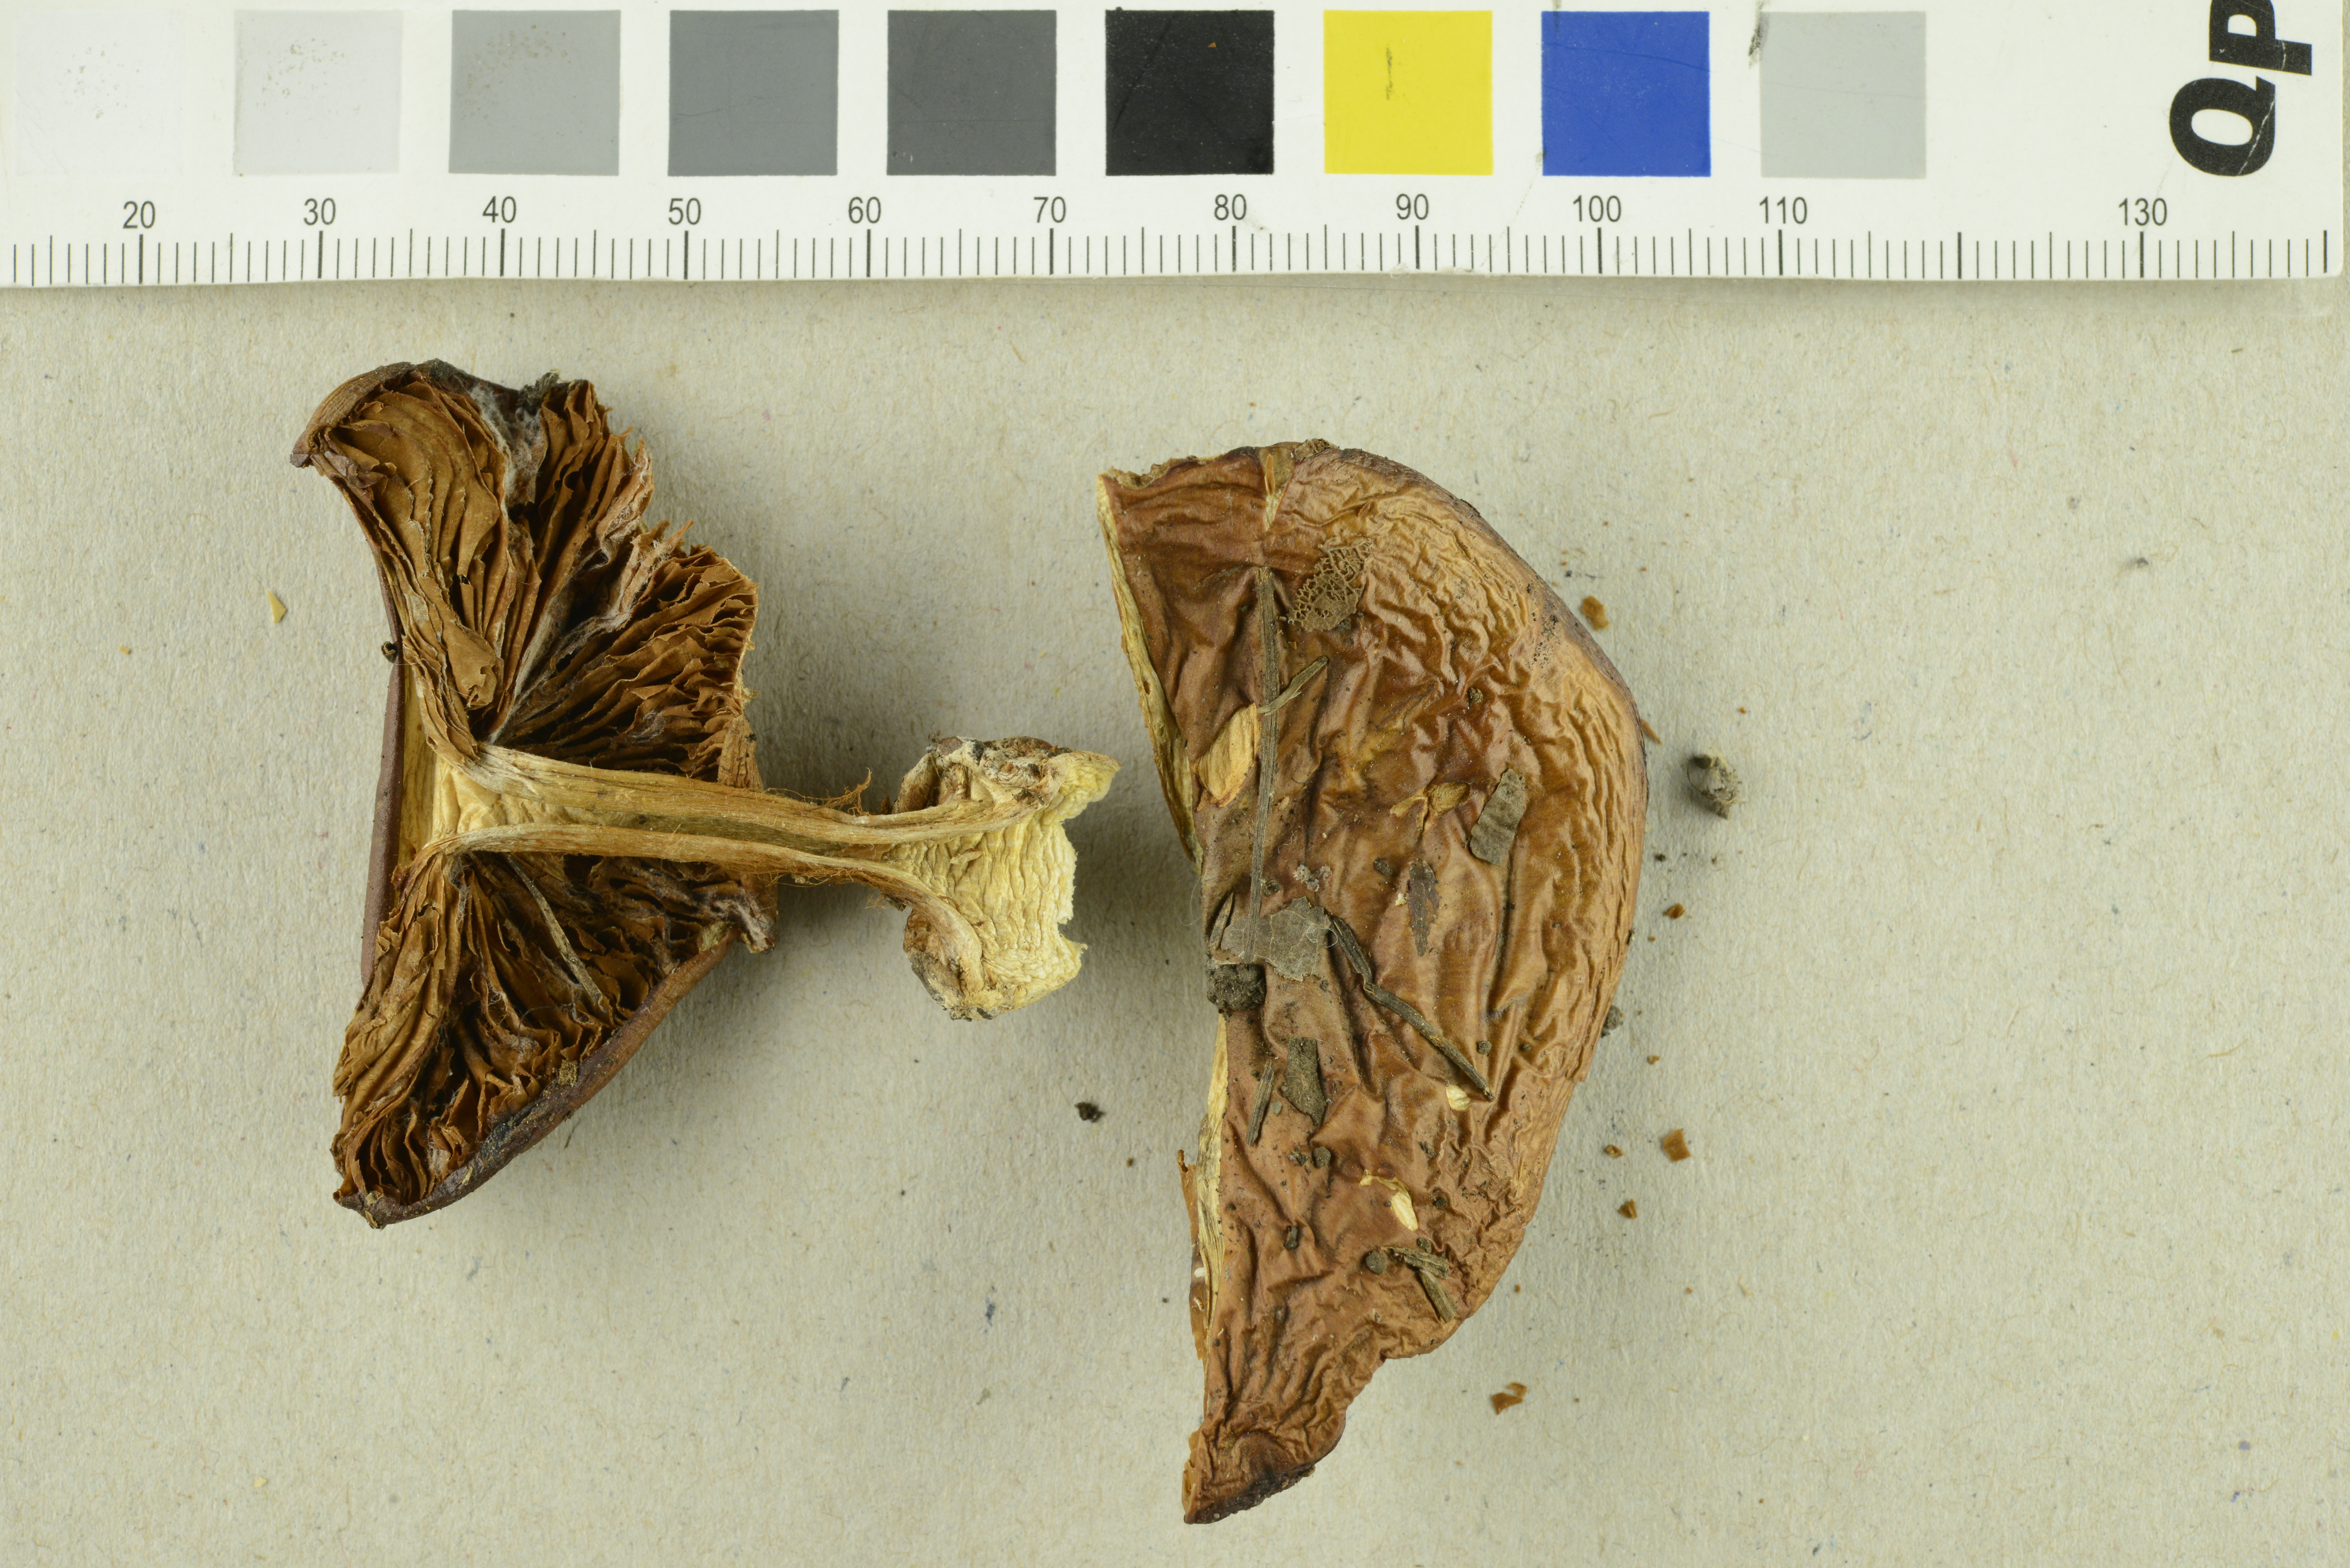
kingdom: Fungi
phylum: Basidiomycota
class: Agaricomycetes
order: Agaricales
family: Cortinariaceae
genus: Phlegmacium
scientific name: Phlegmacium marklundii
